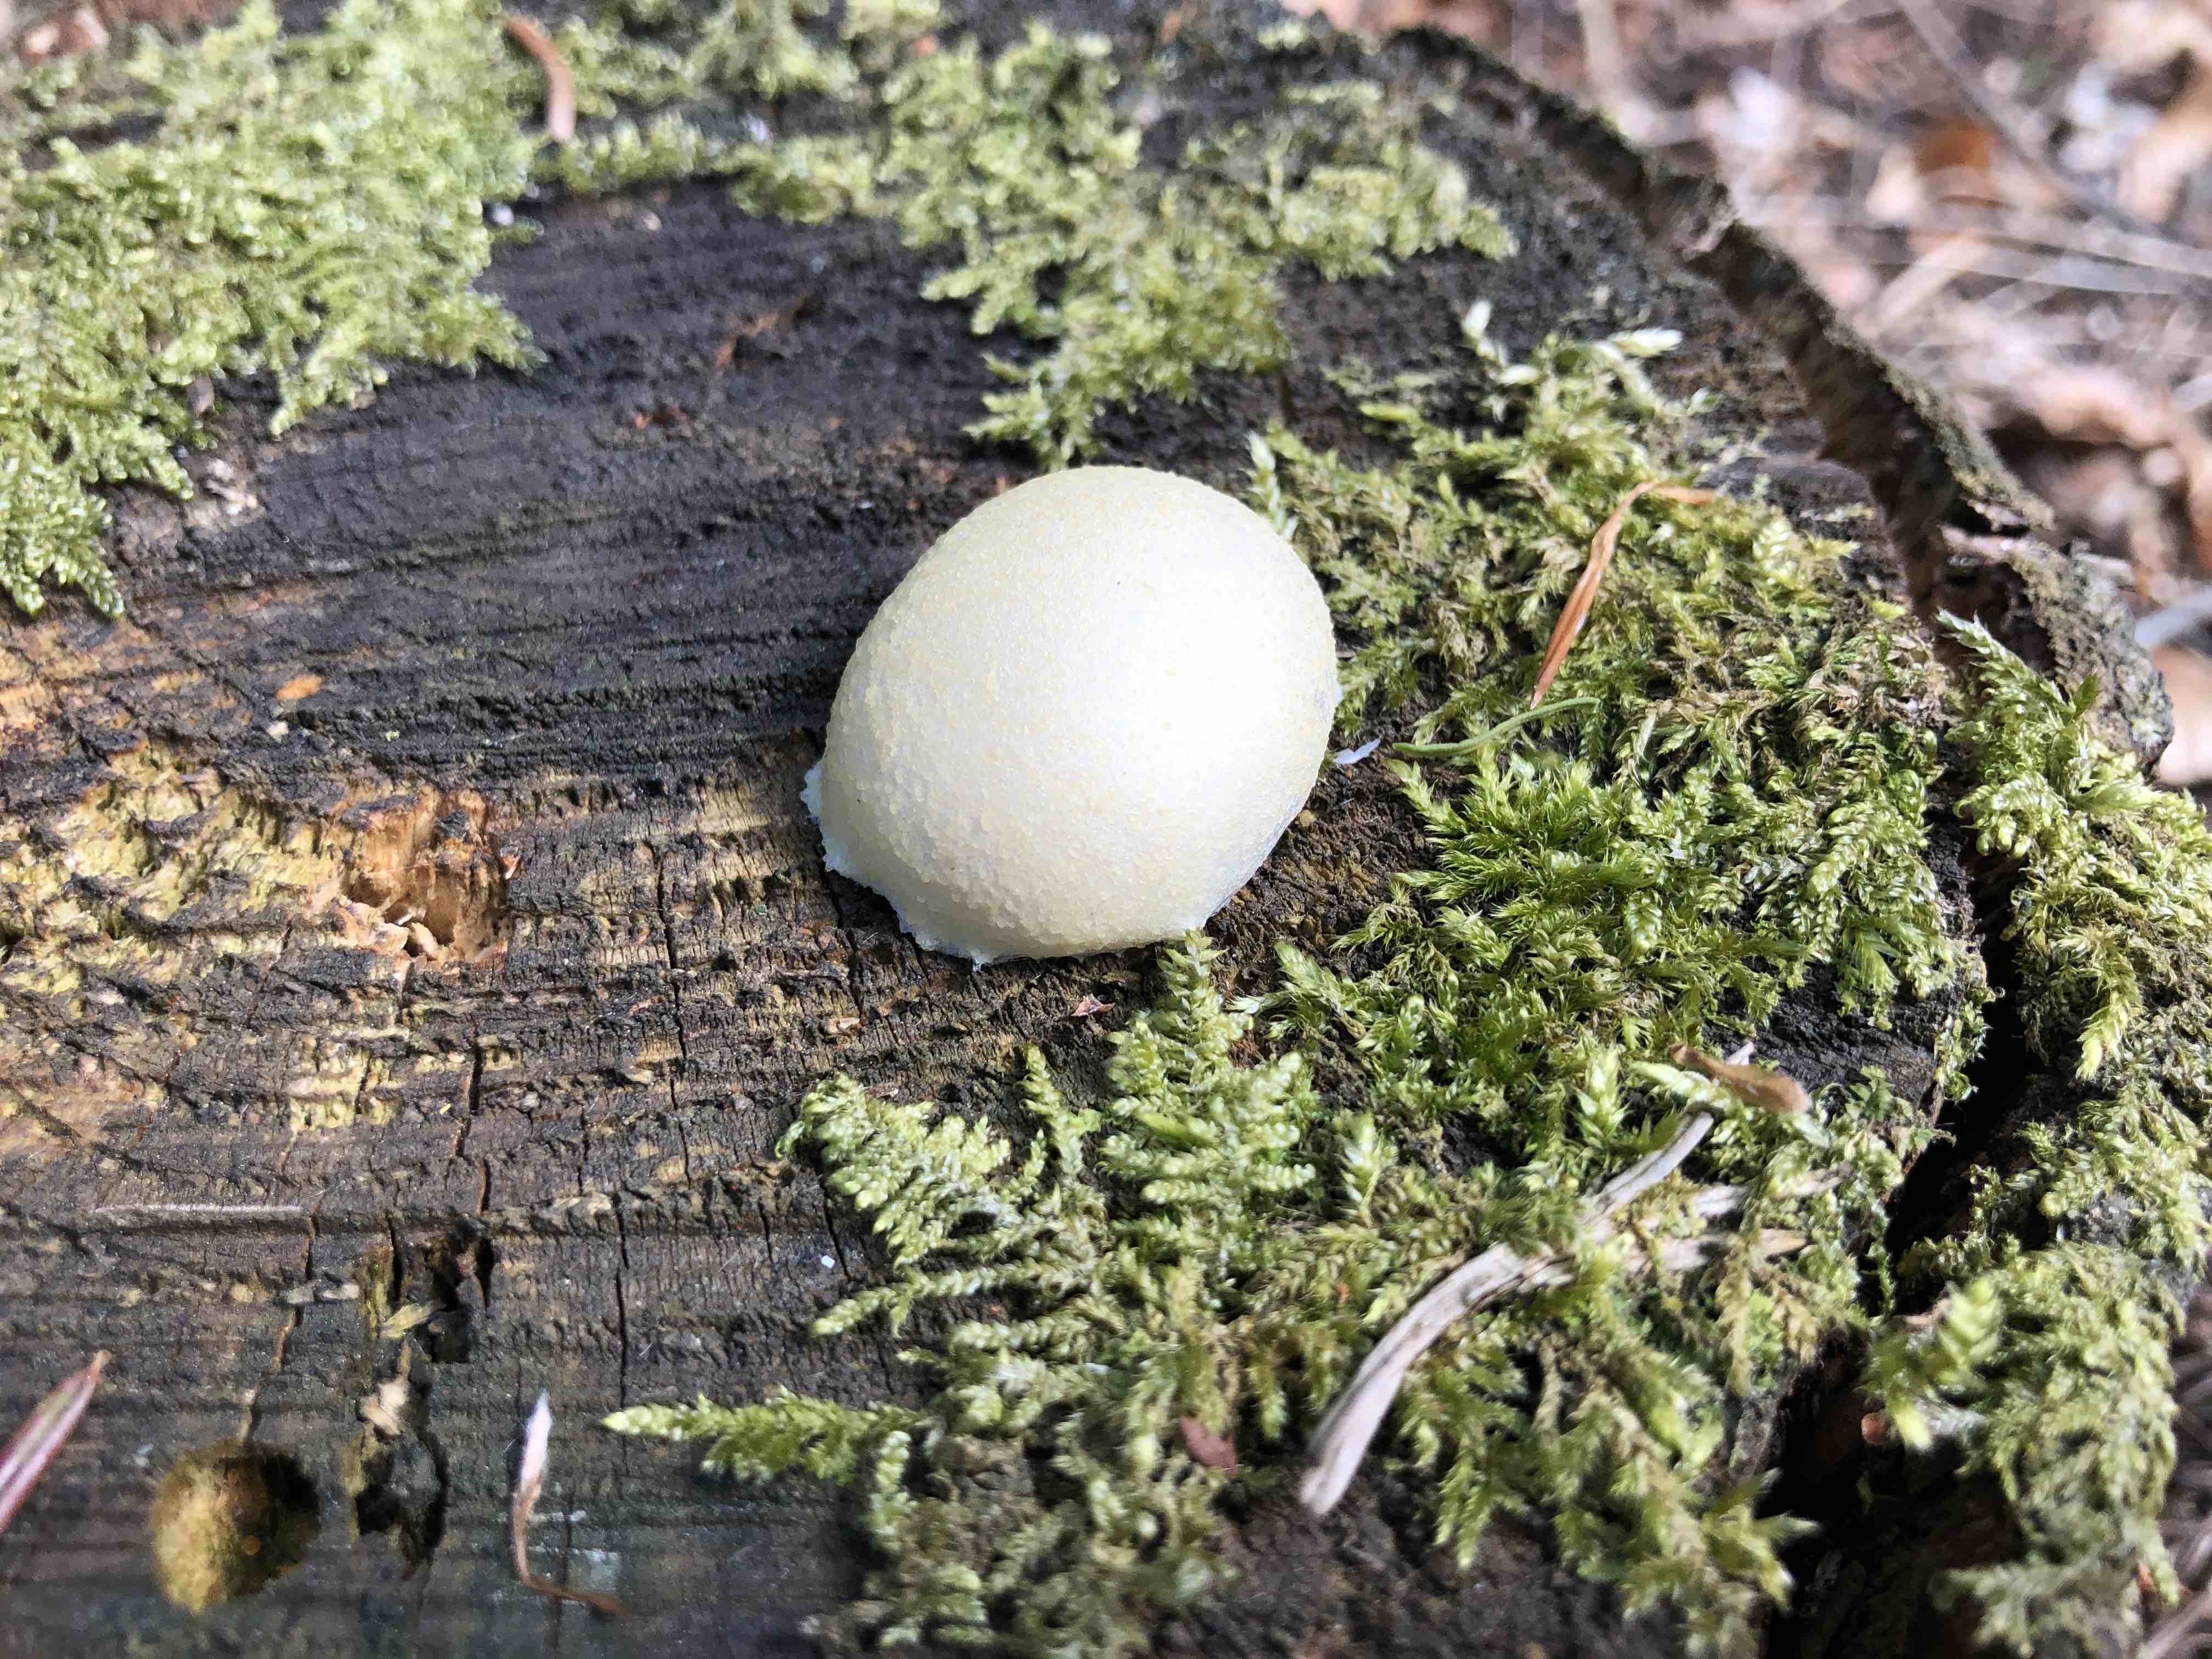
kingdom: Protozoa
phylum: Mycetozoa
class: Myxomycetes
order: Cribrariales
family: Tubiferaceae
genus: Reticularia
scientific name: Reticularia lycoperdon
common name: skinnende støvpude
